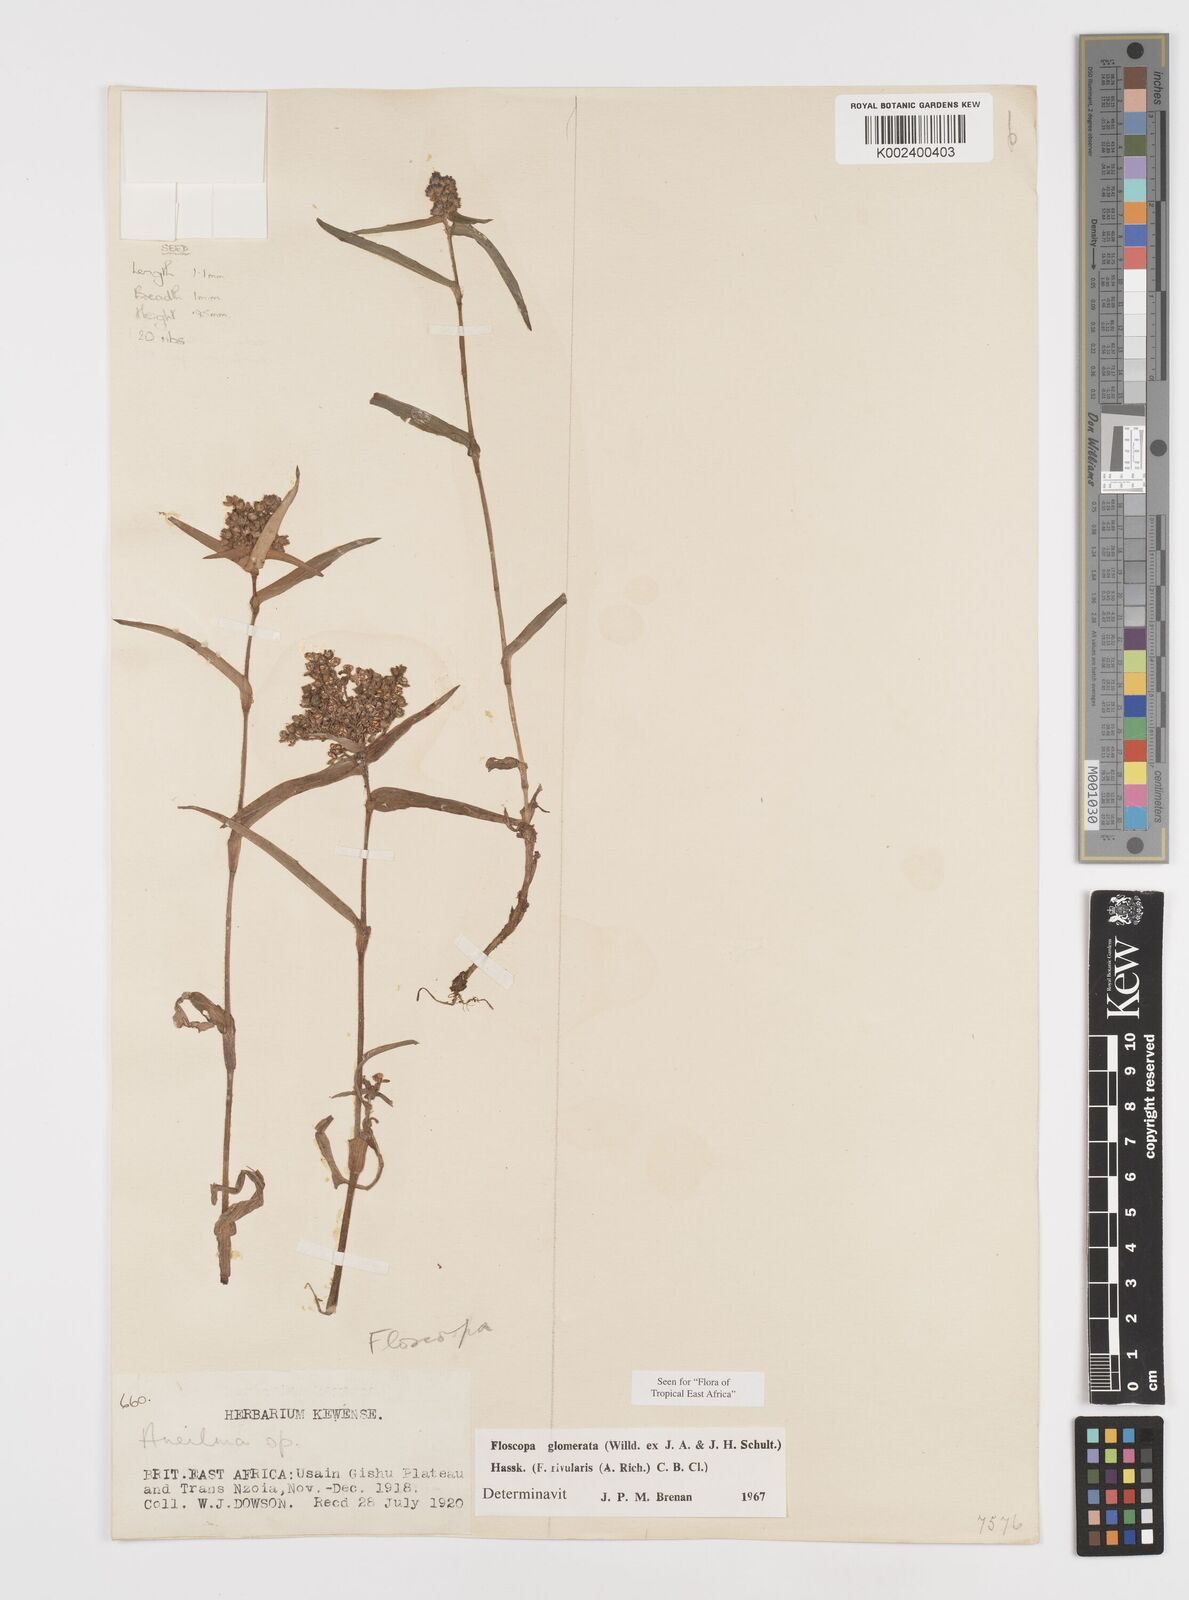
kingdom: Plantae
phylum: Tracheophyta
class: Liliopsida
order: Commelinales
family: Commelinaceae
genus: Floscopa
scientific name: Floscopa glomerata
